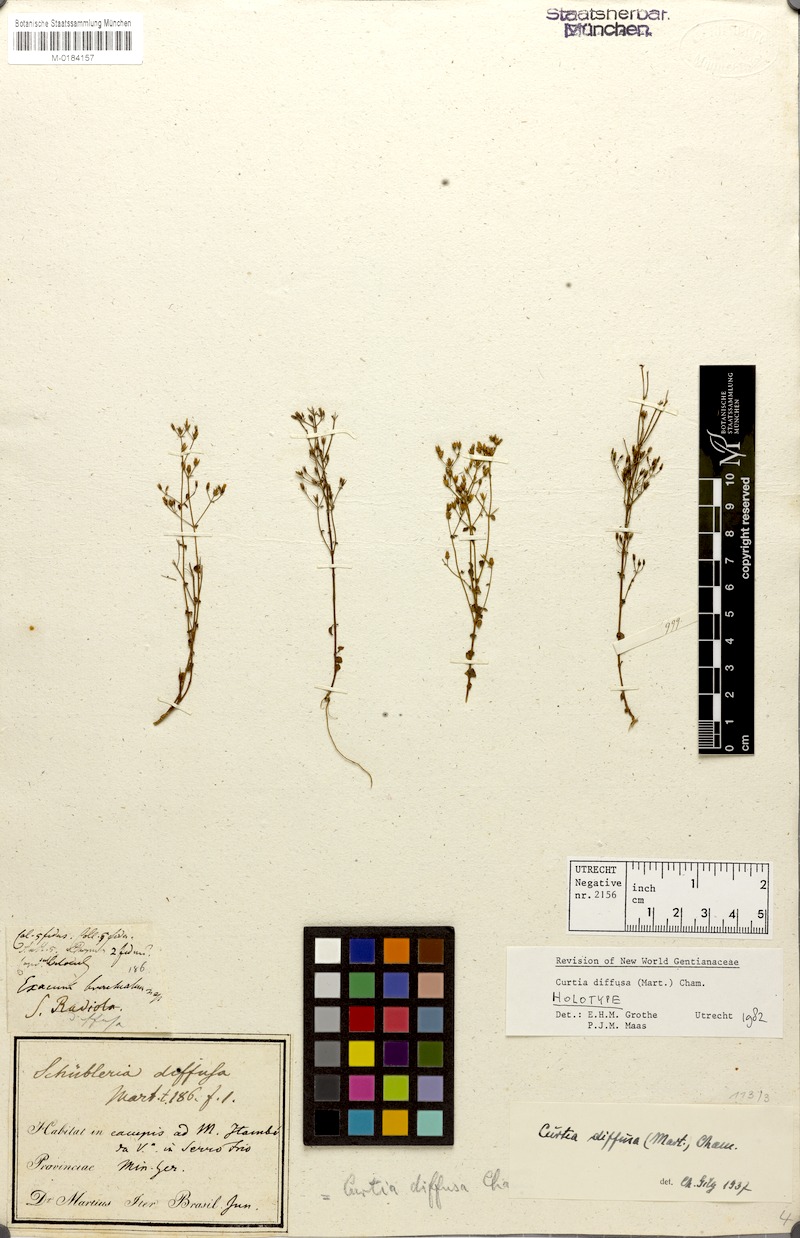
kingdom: Plantae
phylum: Tracheophyta
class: Magnoliopsida
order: Gentianales
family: Gentianaceae
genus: Curtia
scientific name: Curtia diffusa
